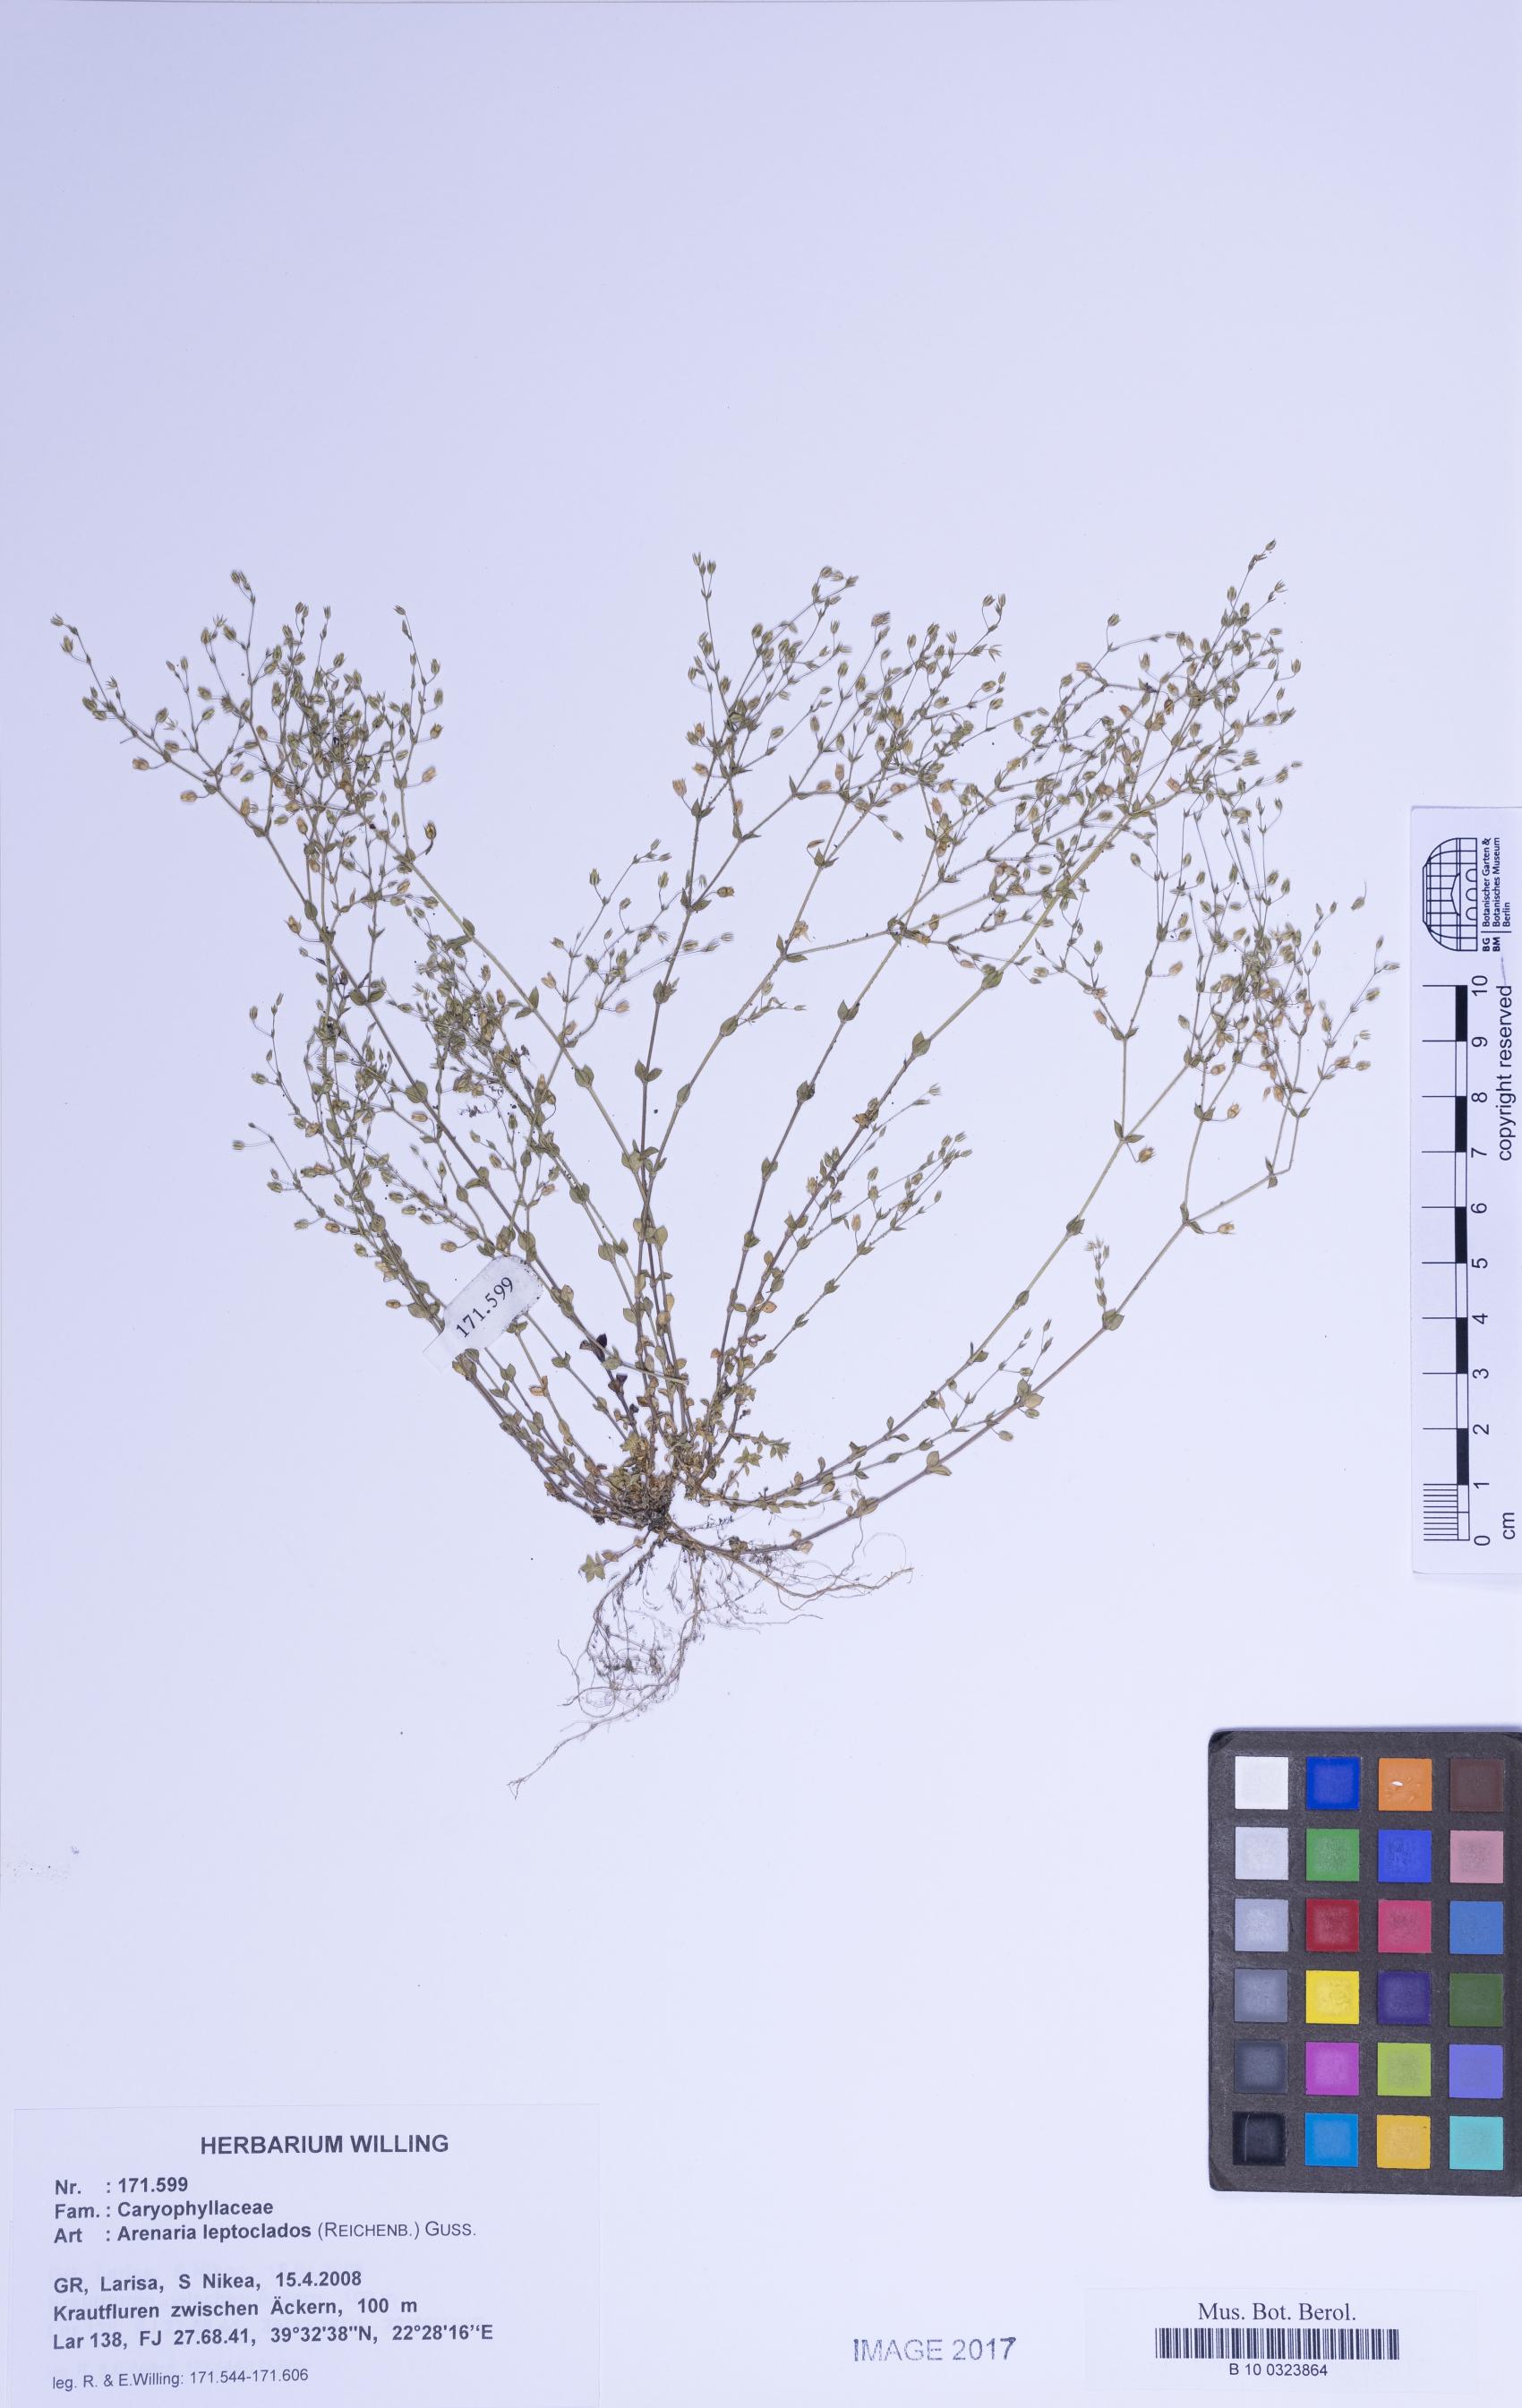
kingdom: Plantae
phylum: Tracheophyta
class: Magnoliopsida
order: Caryophyllales
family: Caryophyllaceae
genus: Arenaria
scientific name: Arenaria leptoclados
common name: Thyme-leaved sandwort
